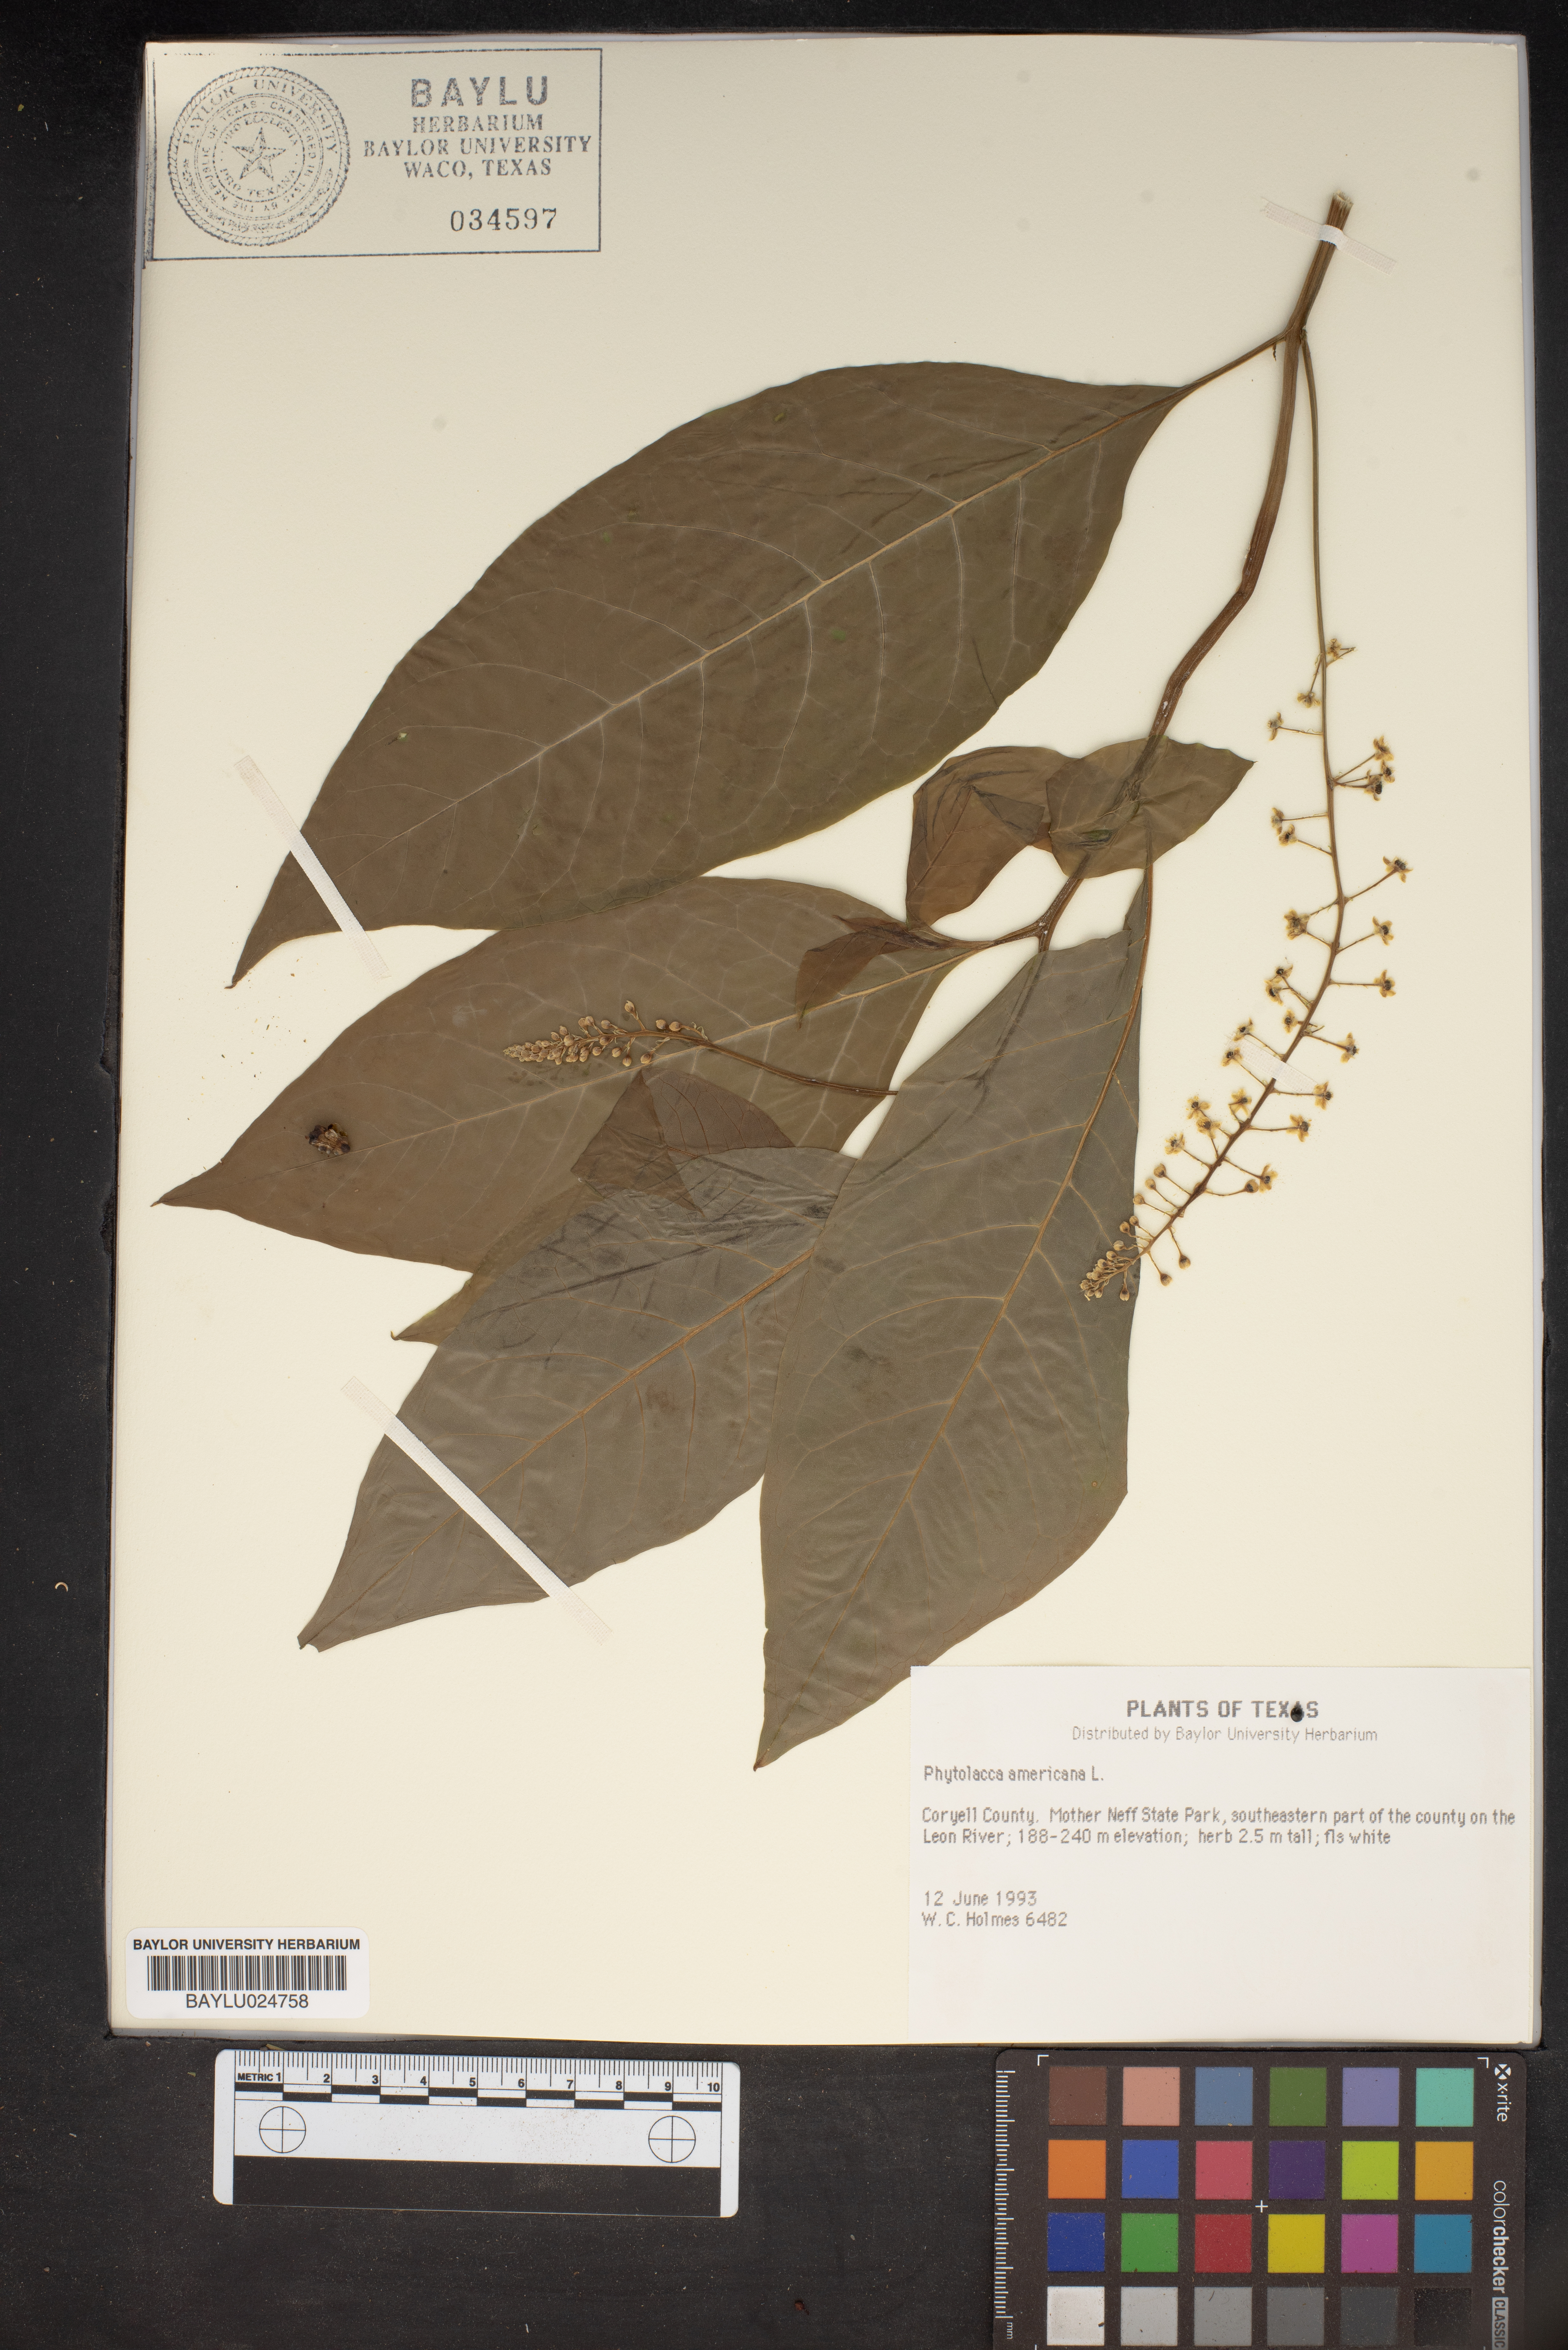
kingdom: Plantae
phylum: Tracheophyta
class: Magnoliopsida
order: Caryophyllales
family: Phytolaccaceae
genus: Phytolacca
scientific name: Phytolacca americana
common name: American pokeweed
